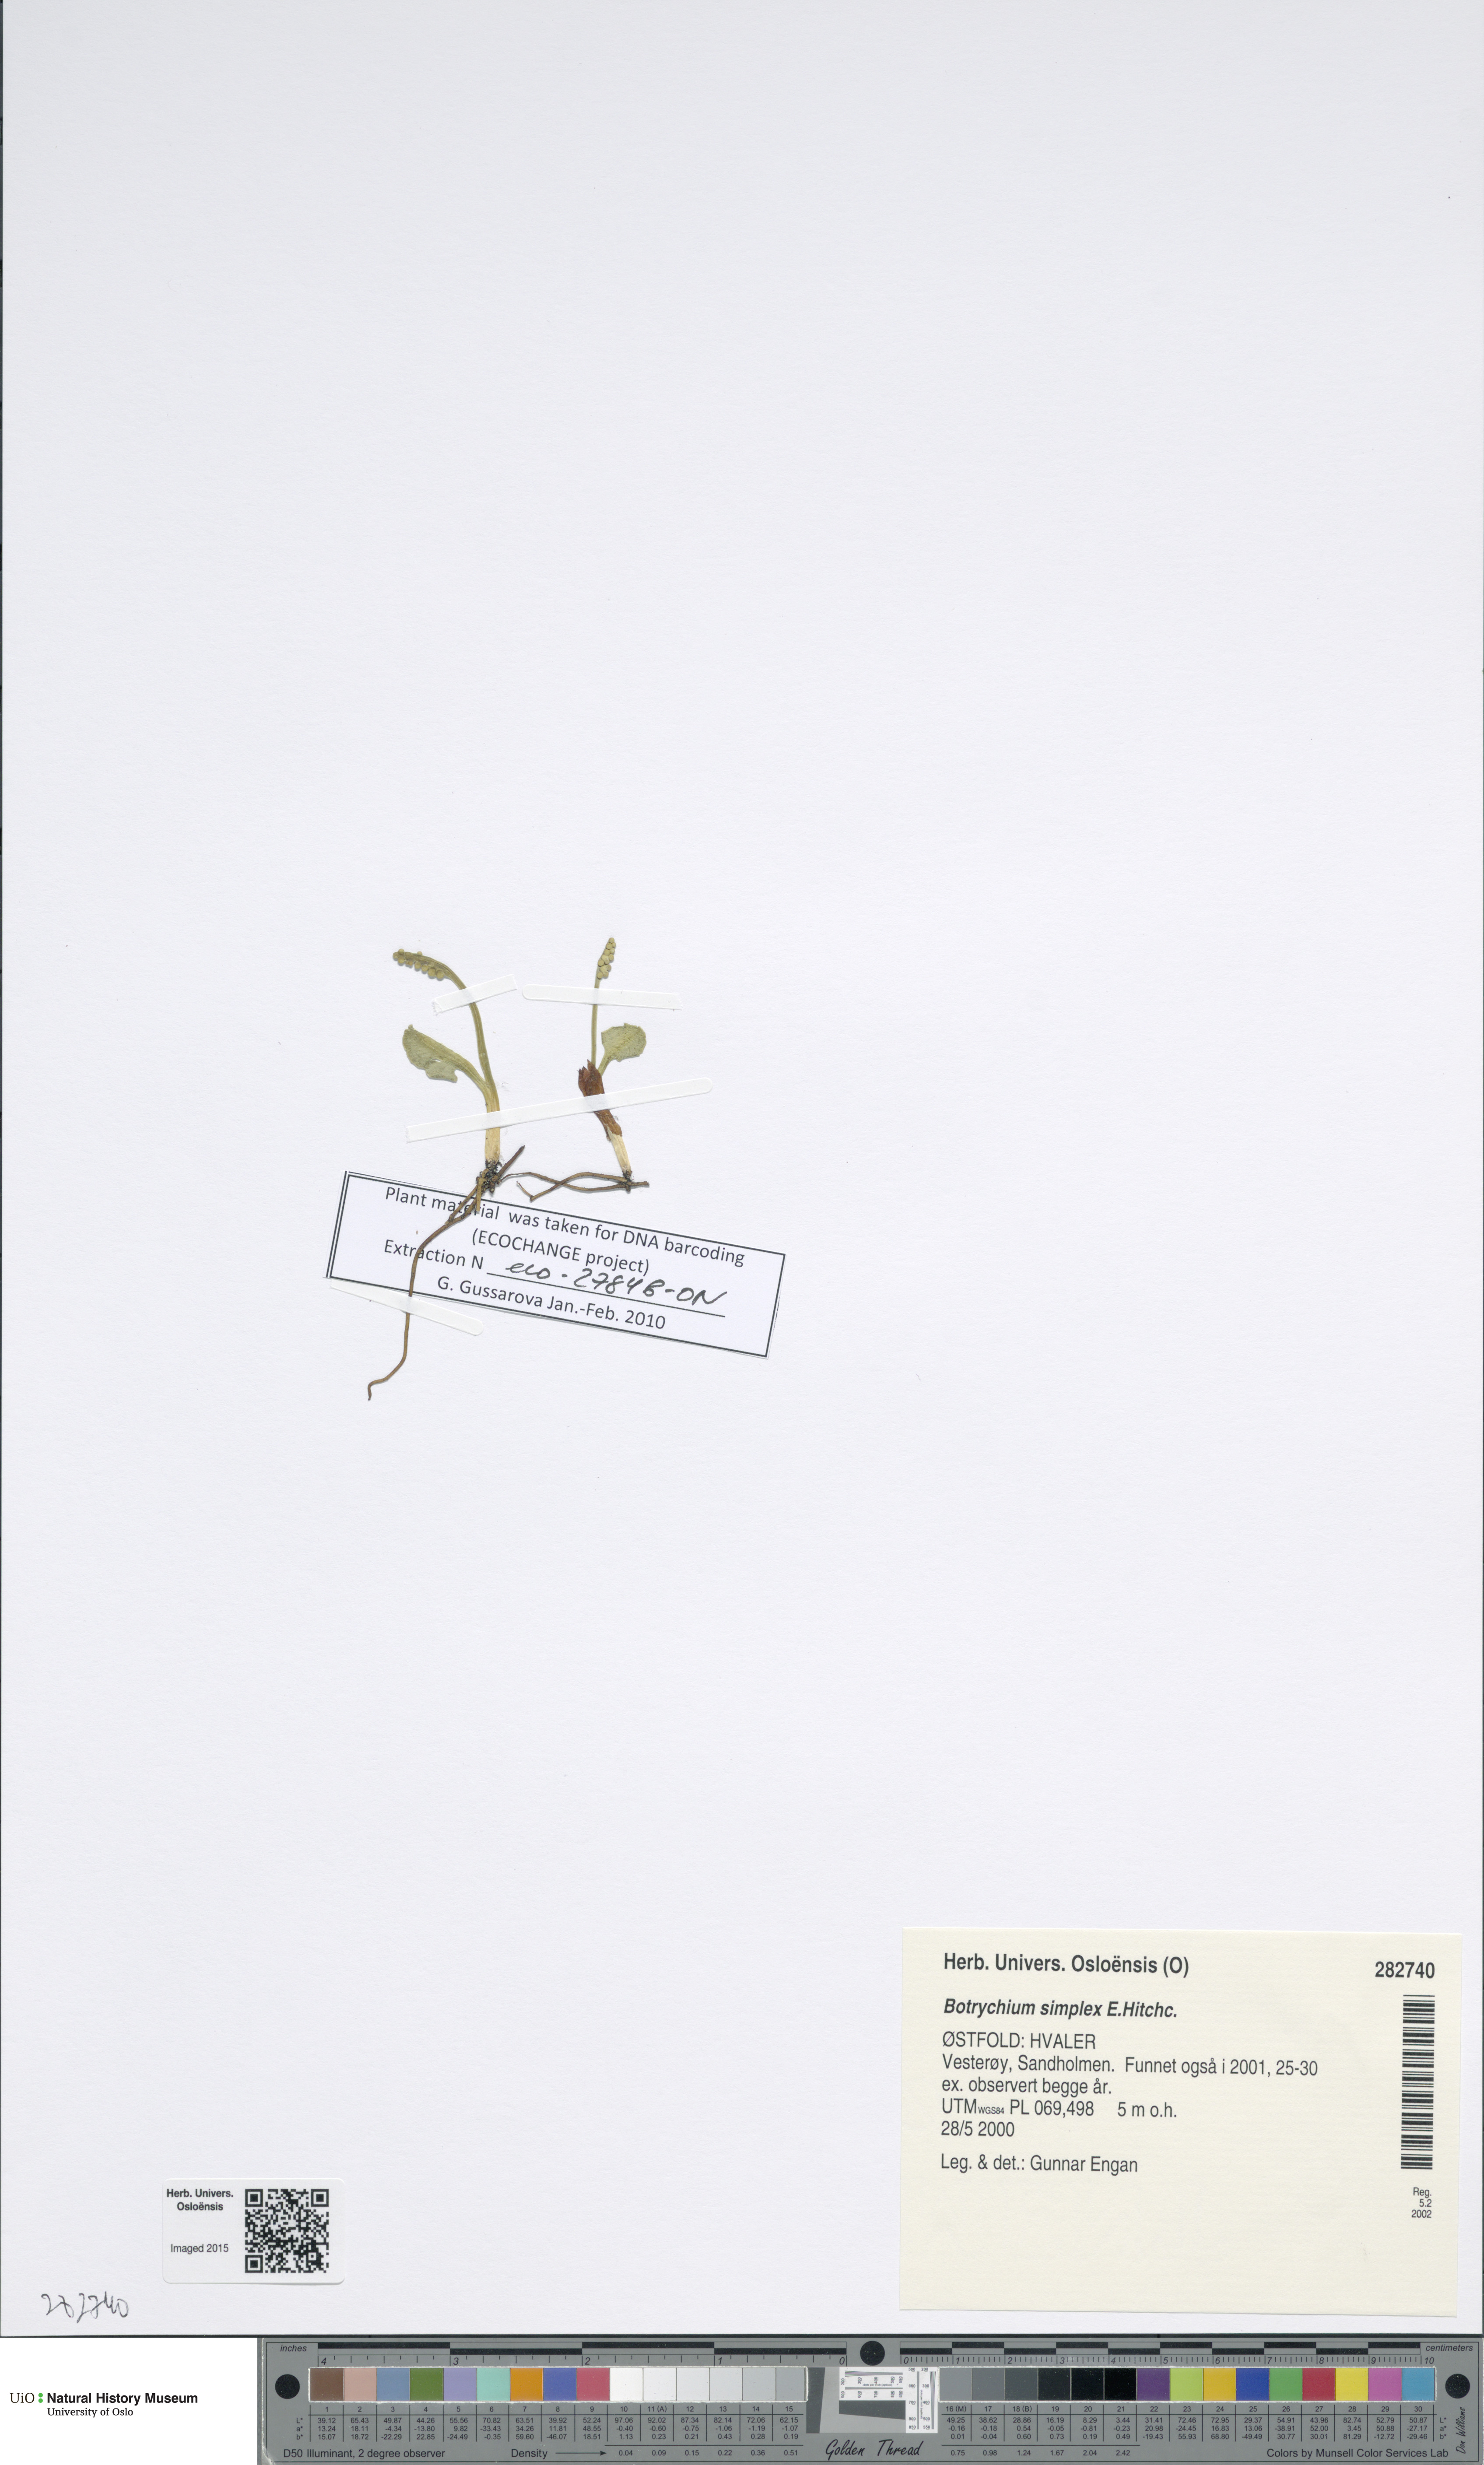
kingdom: Plantae
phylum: Tracheophyta
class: Polypodiopsida
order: Ophioglossales
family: Ophioglossaceae
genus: Botrychium
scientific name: Botrychium simplex
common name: Least moonwort
